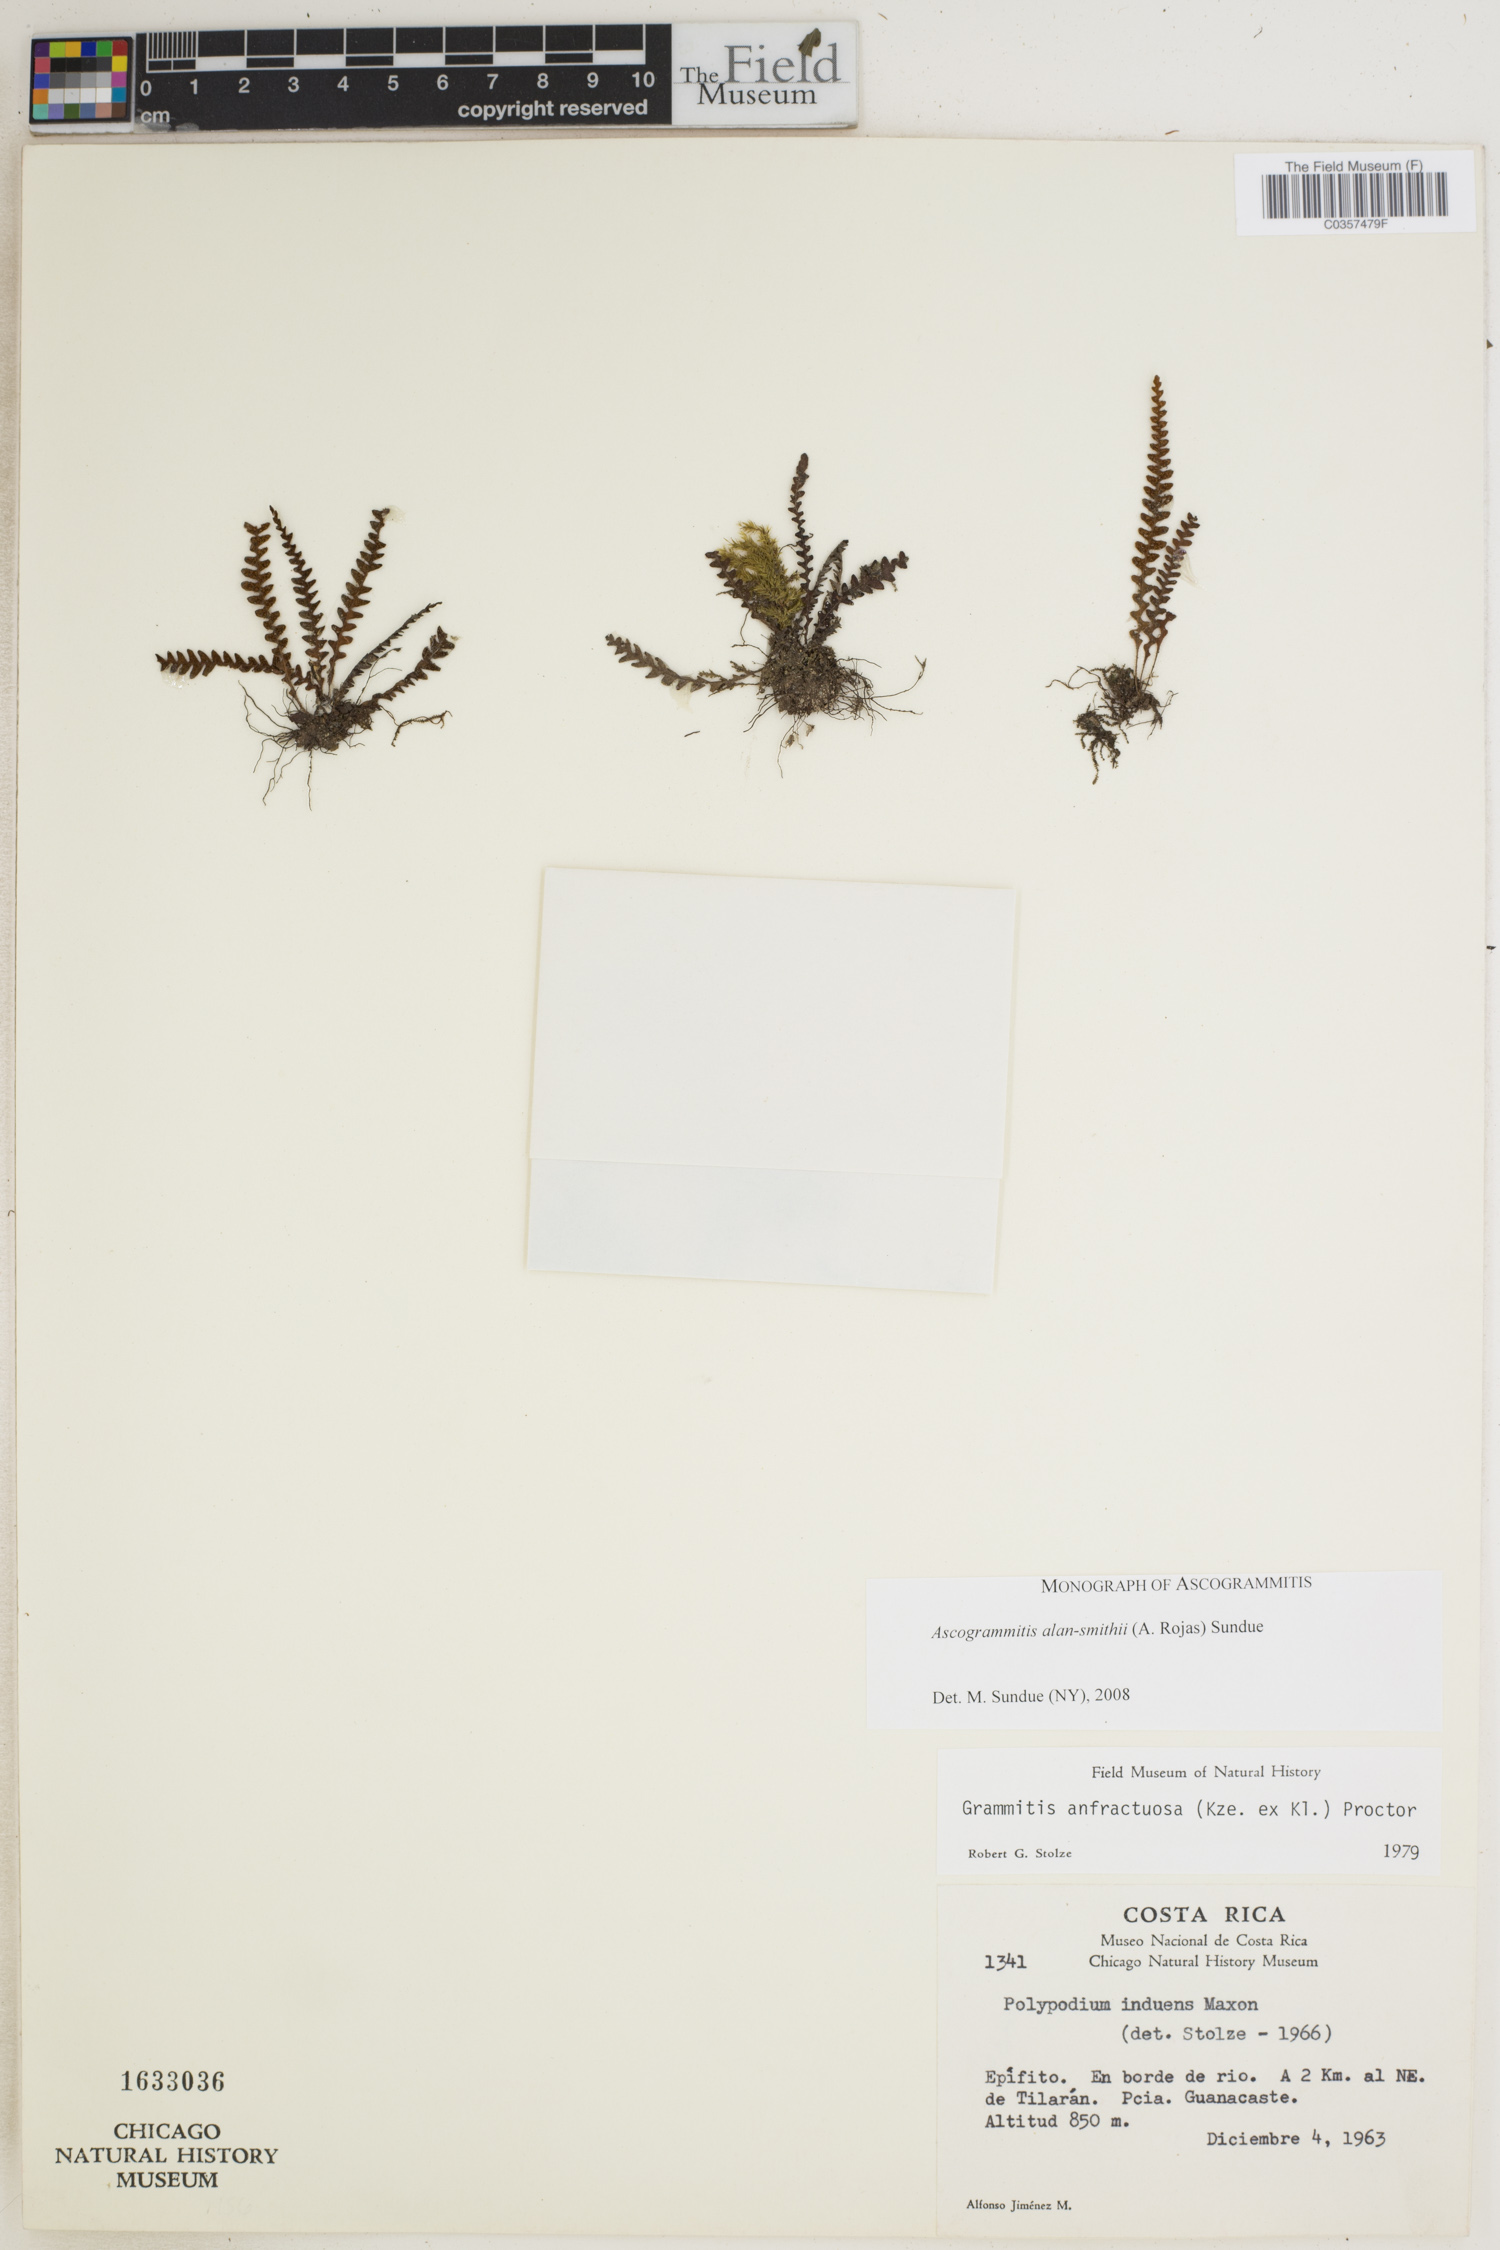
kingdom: Plantae
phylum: Tracheophyta
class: Polypodiopsida
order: Polypodiales
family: Polypodiaceae
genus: Ascogrammitis
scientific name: Ascogrammitis alan-smithii
